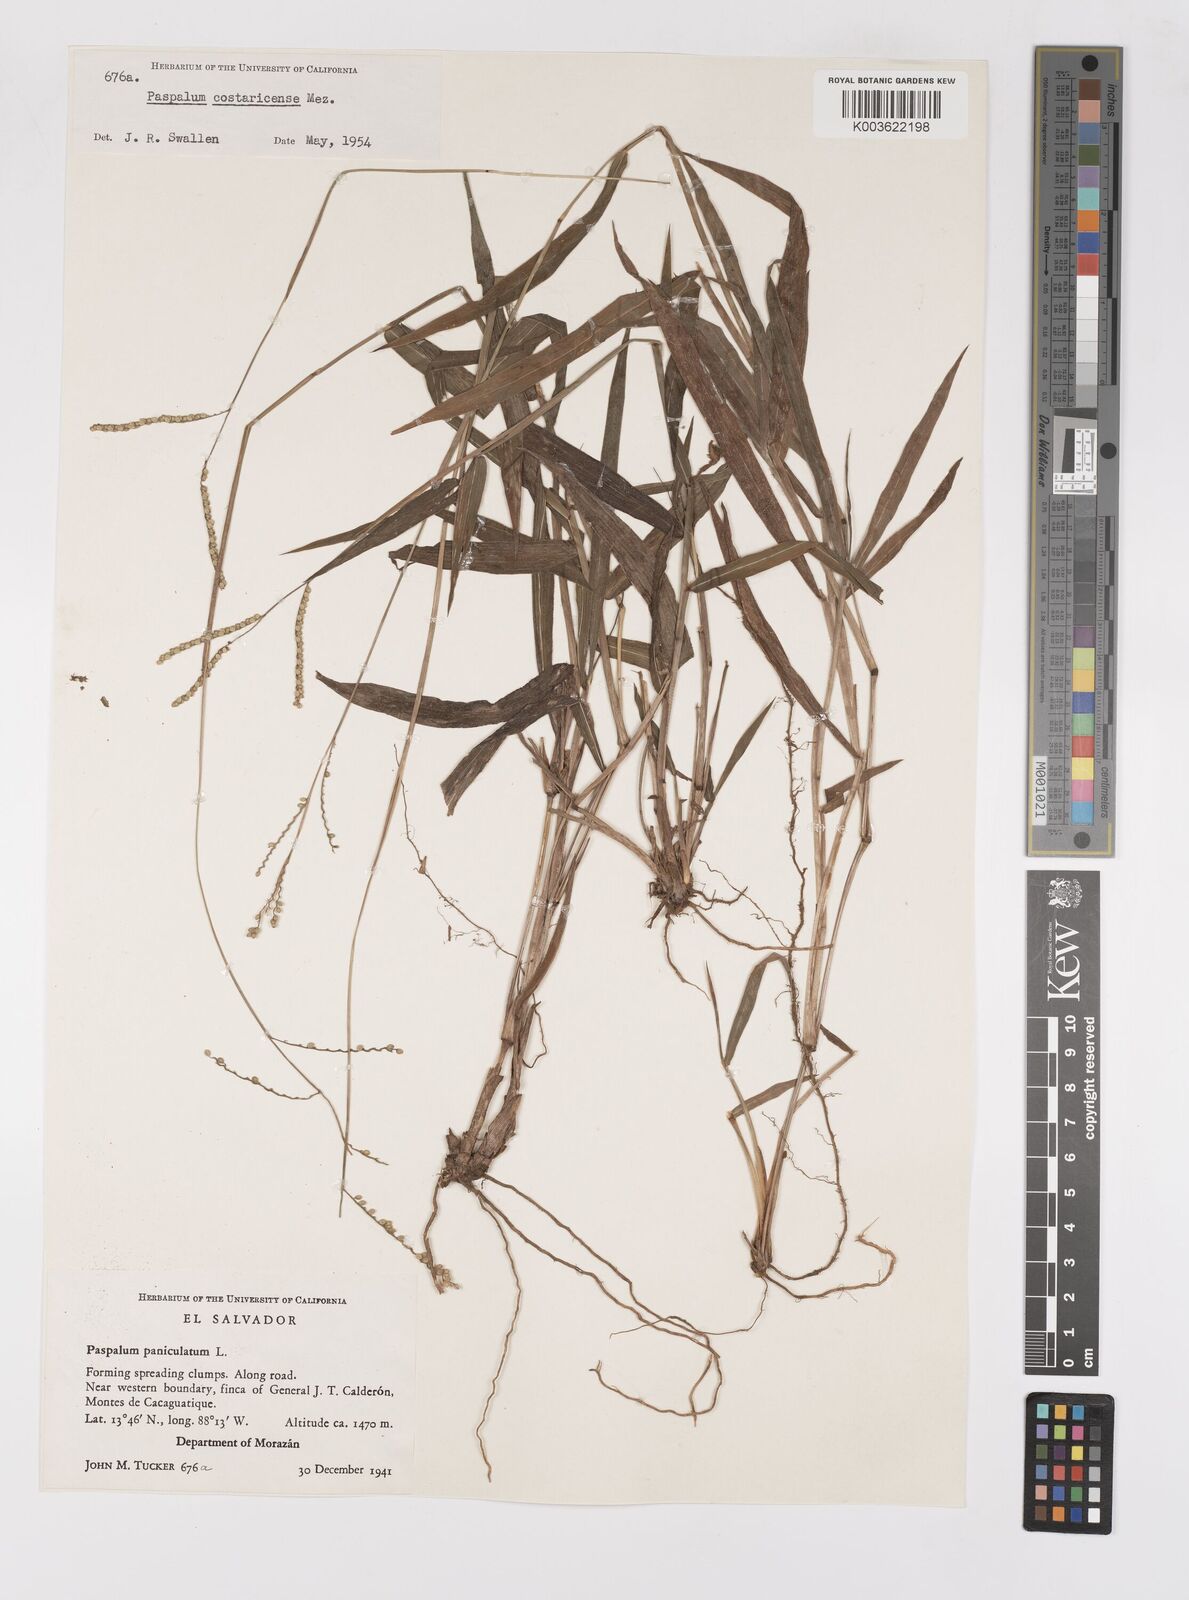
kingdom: Plantae
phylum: Tracheophyta
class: Liliopsida
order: Poales
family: Poaceae
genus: Paspalum
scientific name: Paspalum costaricense
